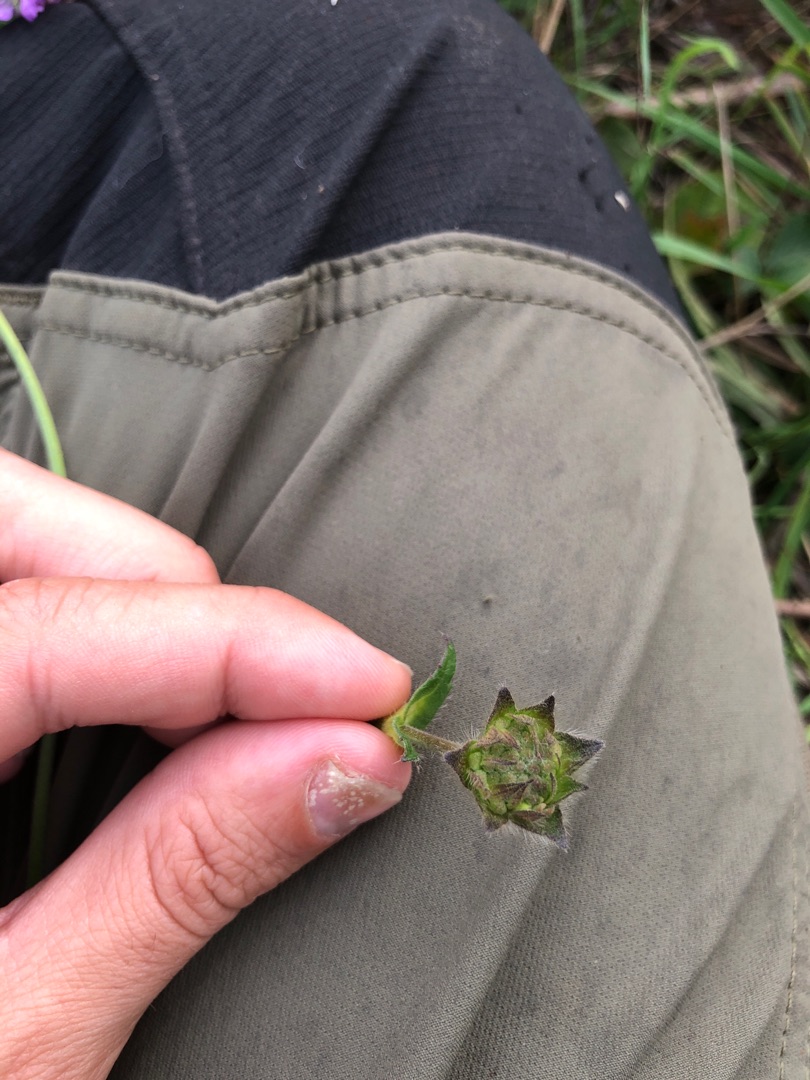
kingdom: Plantae
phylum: Tracheophyta
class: Magnoliopsida
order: Dipsacales
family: Caprifoliaceae
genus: Knautia
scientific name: Knautia arvensis
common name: Blåhat
